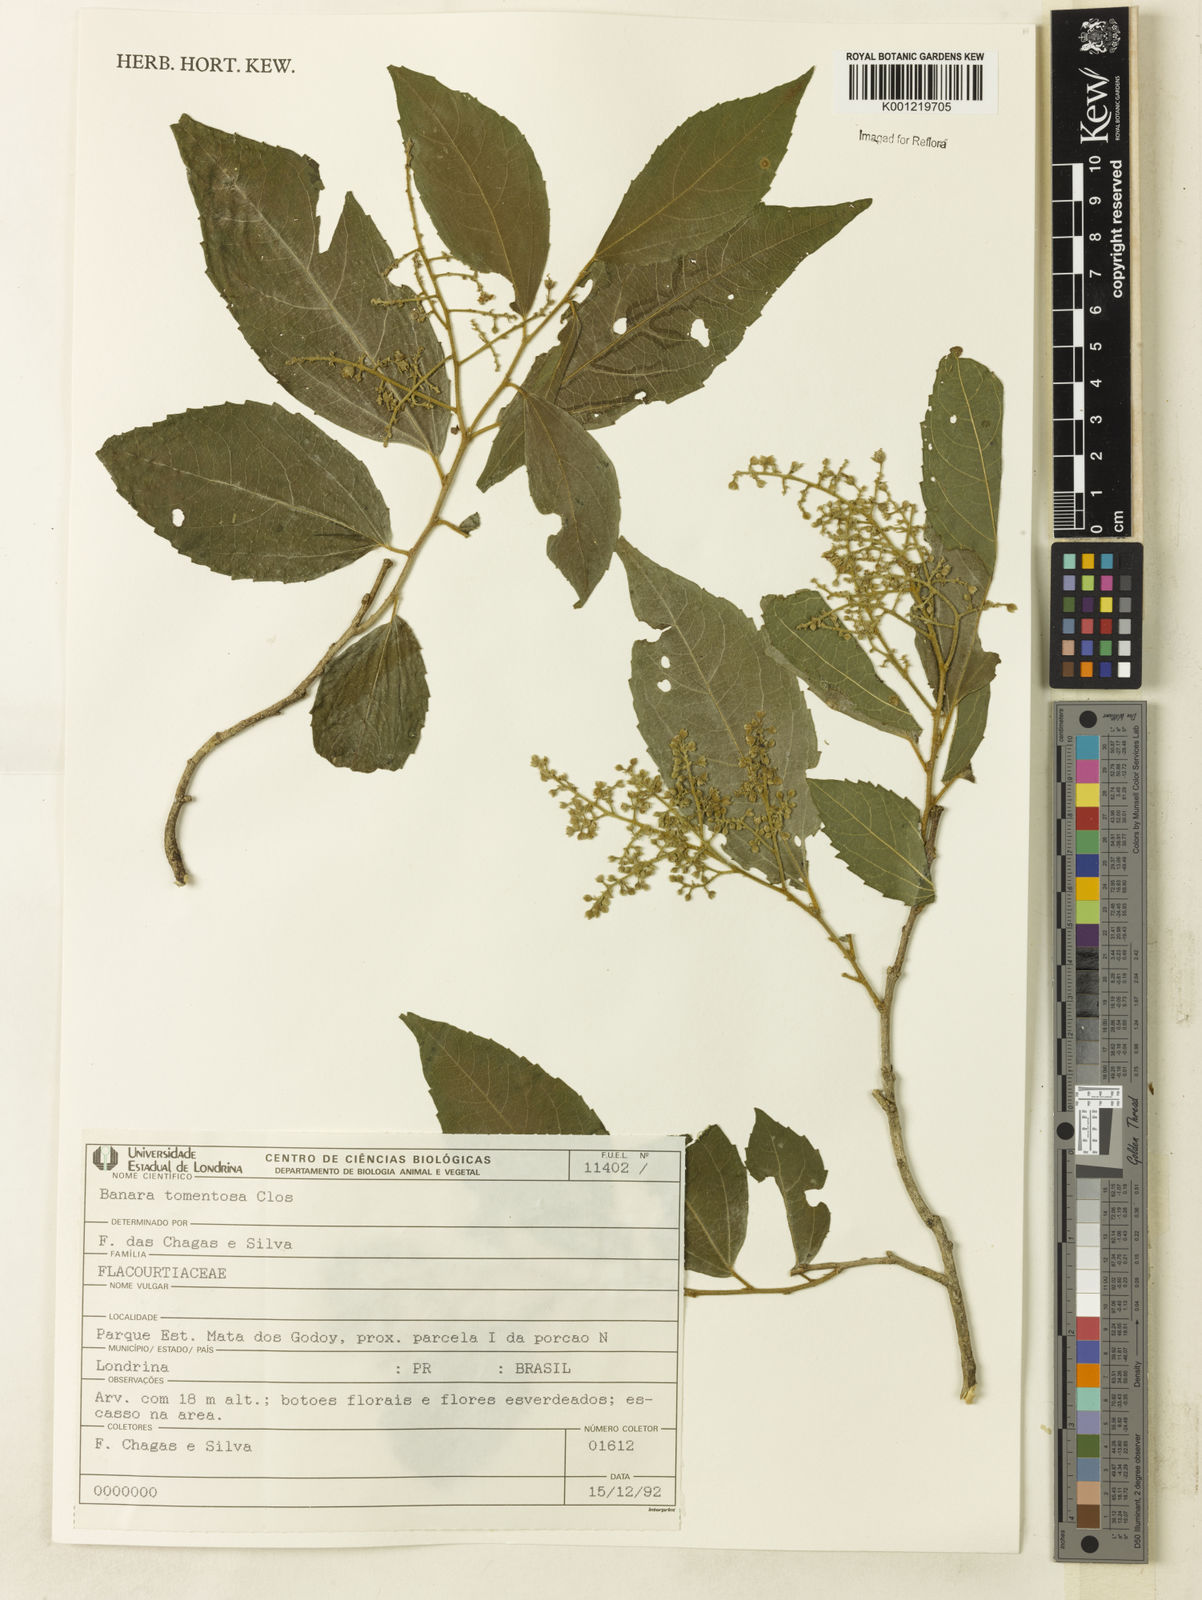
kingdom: Plantae
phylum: Tracheophyta
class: Magnoliopsida
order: Malpighiales
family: Salicaceae
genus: Banara
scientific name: Banara tomentosa
